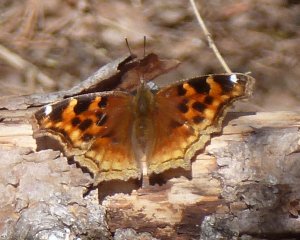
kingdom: Animalia
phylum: Arthropoda
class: Insecta
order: Lepidoptera
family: Nymphalidae
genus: Polygonia
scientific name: Polygonia vaualbum
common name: Compton Tortoiseshell
